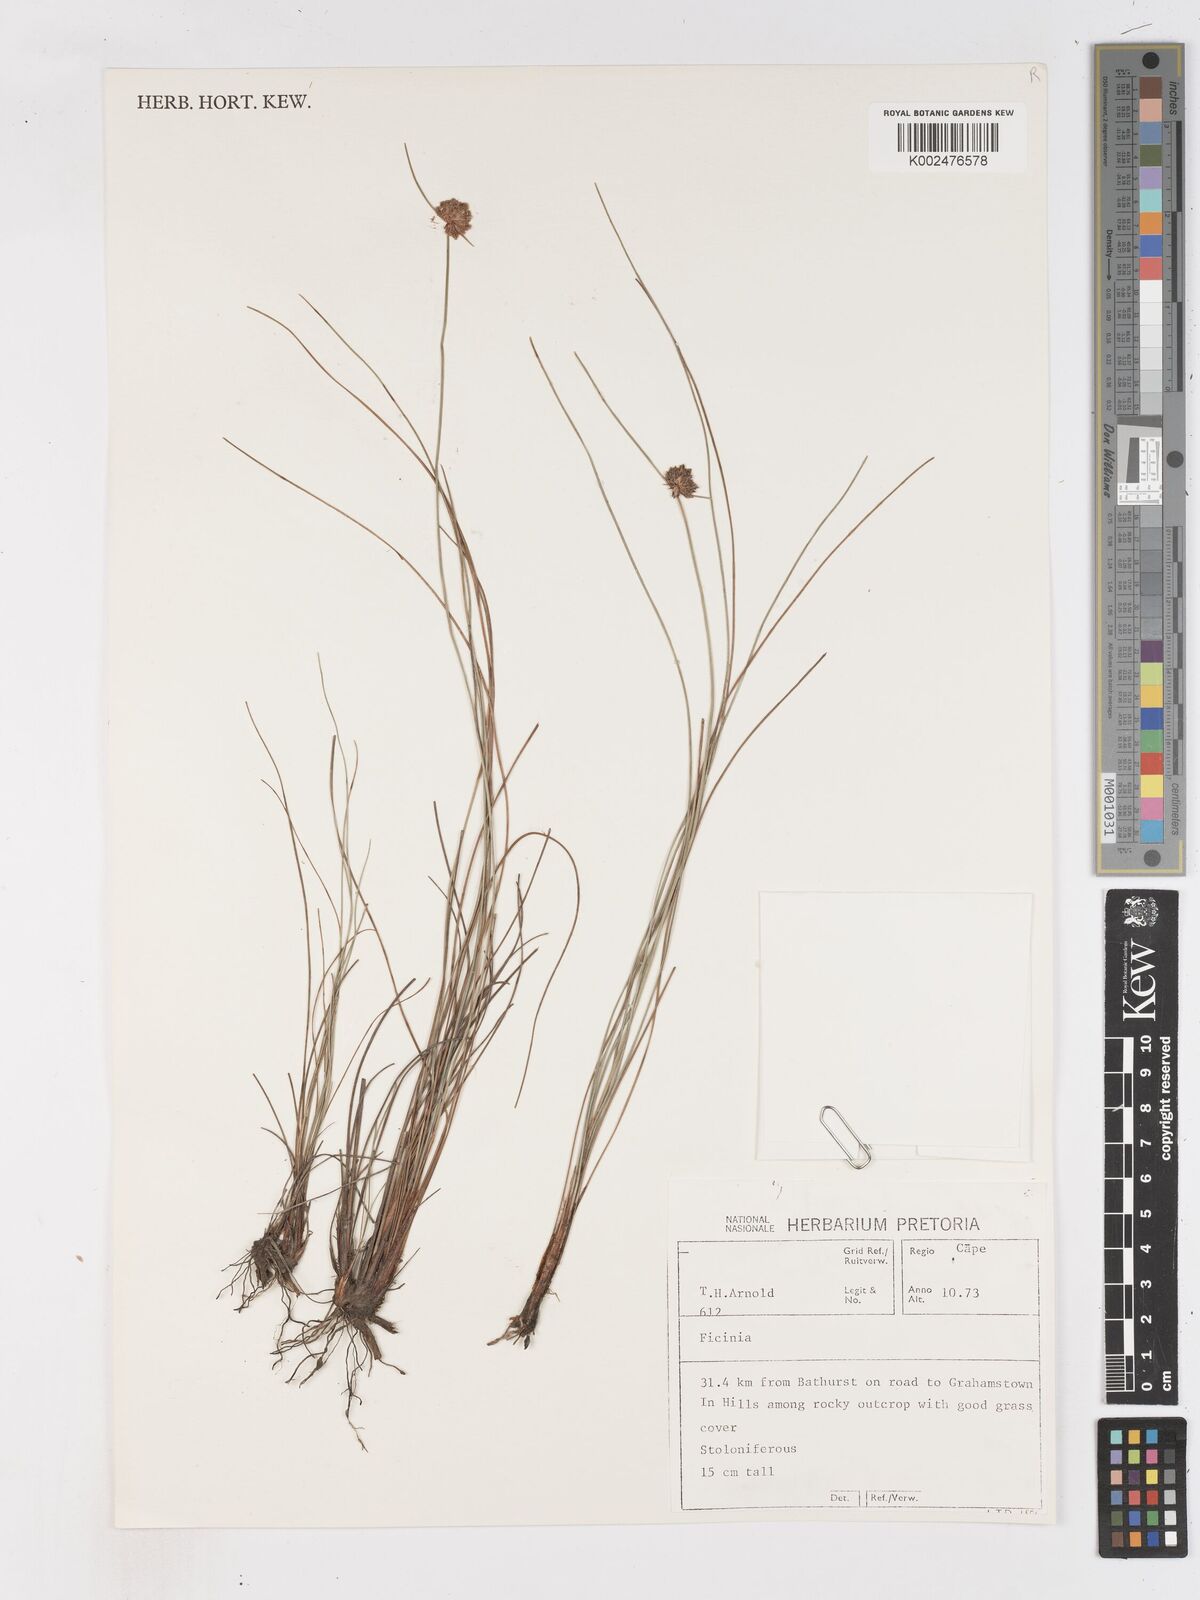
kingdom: Plantae
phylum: Tracheophyta
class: Liliopsida
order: Poales
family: Cyperaceae
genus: Ficinia
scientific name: Ficinia
